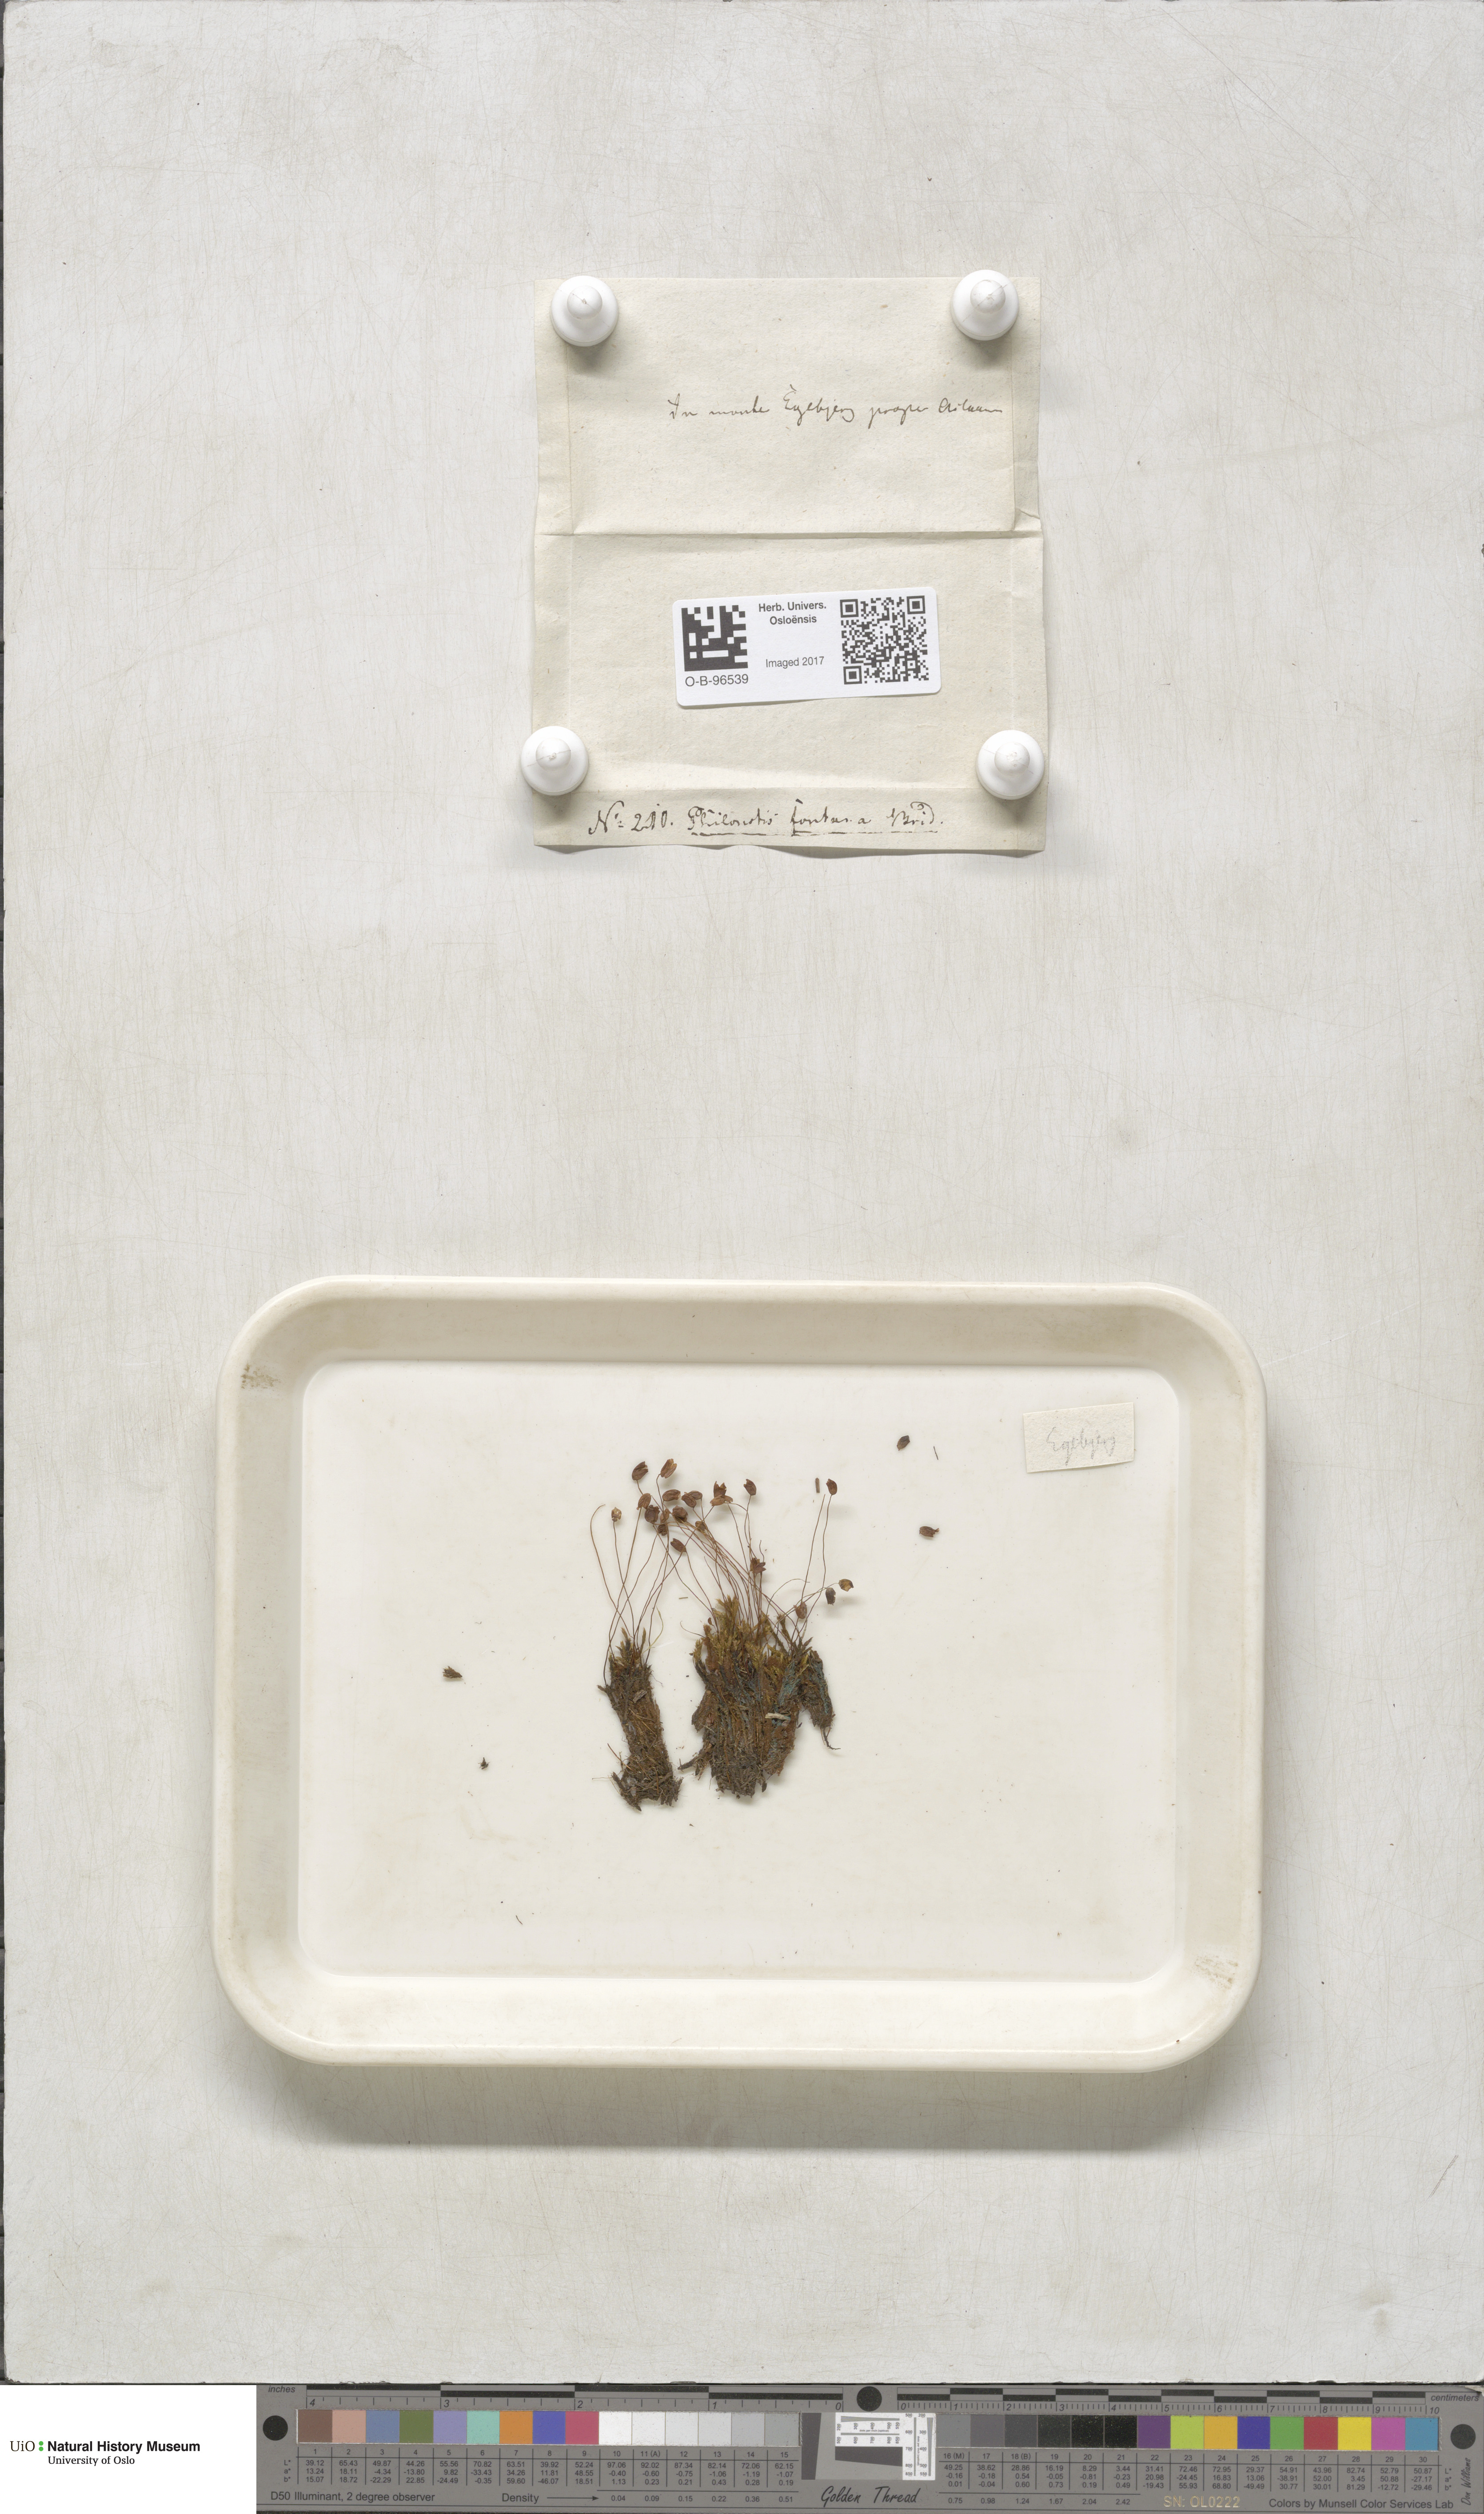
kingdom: Plantae
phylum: Bryophyta
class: Bryopsida
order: Bartramiales
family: Bartramiaceae
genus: Philonotis
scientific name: Philonotis fontana
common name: Fountain apple-moss
